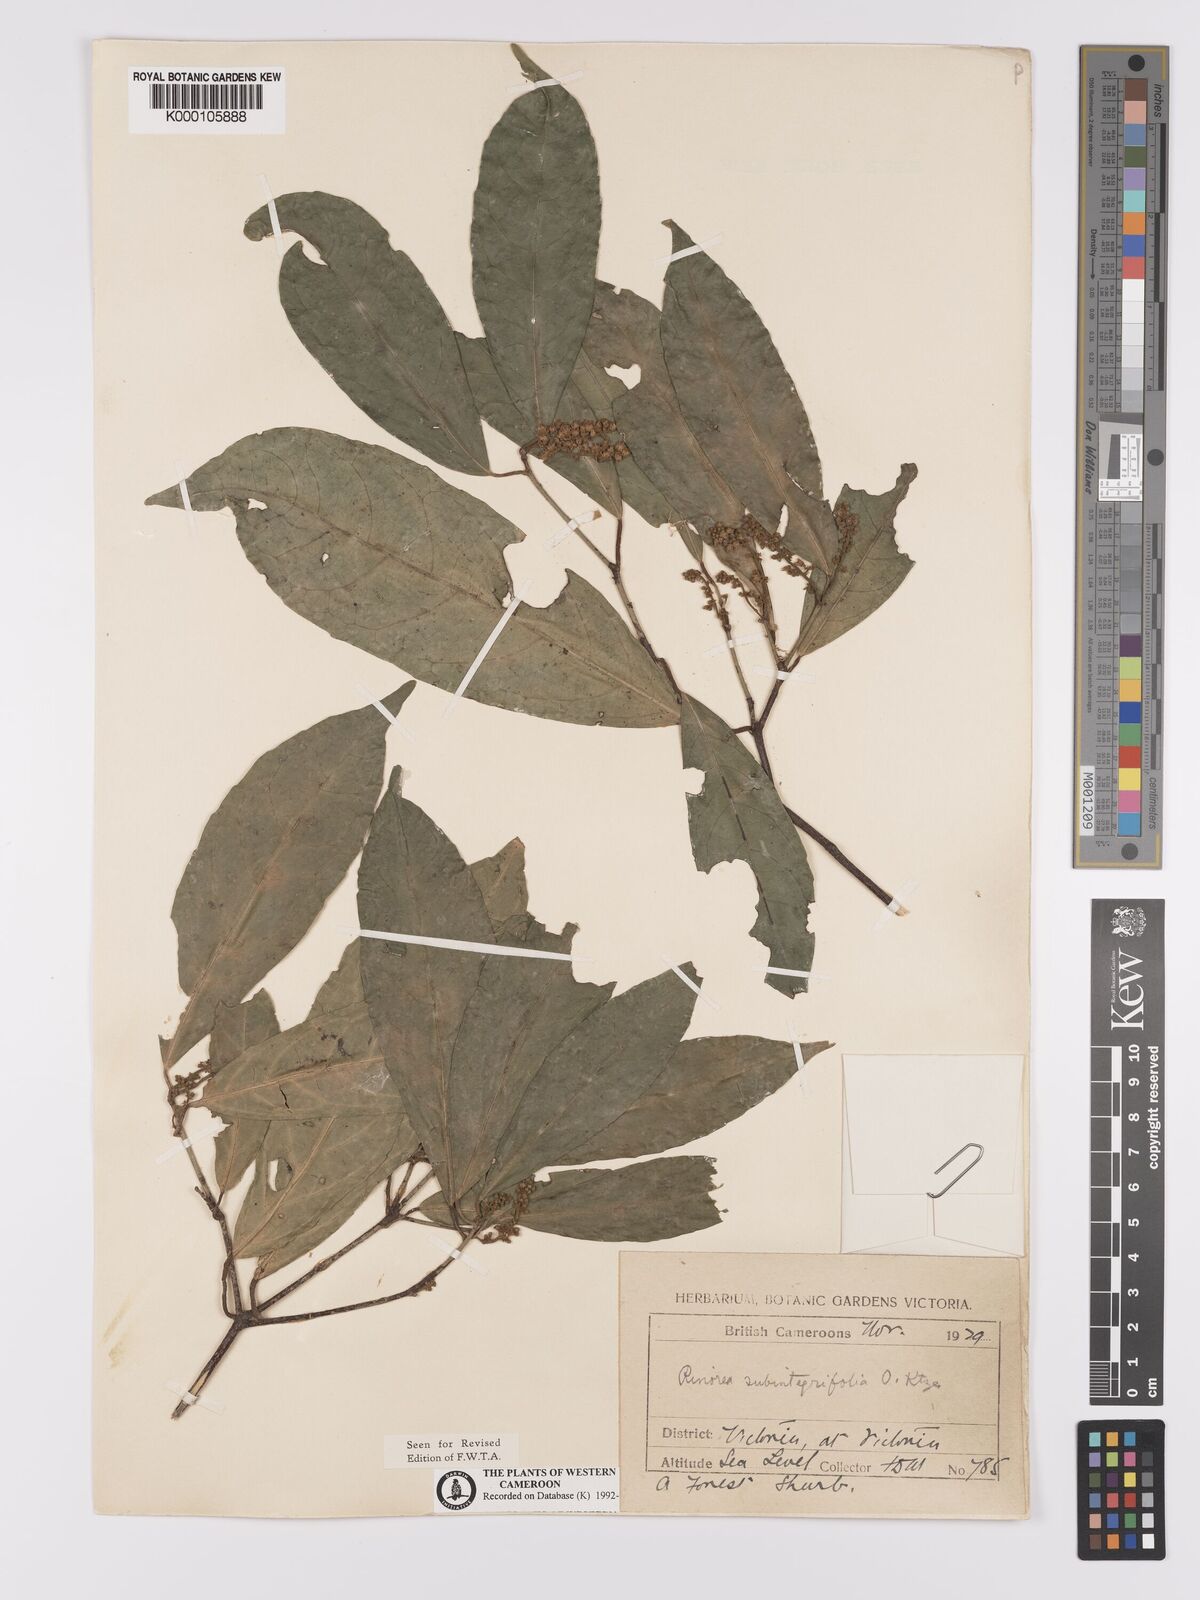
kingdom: Plantae
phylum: Tracheophyta
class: Magnoliopsida
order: Malpighiales
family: Violaceae
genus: Rinorea
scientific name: Rinorea subintegrifolia
